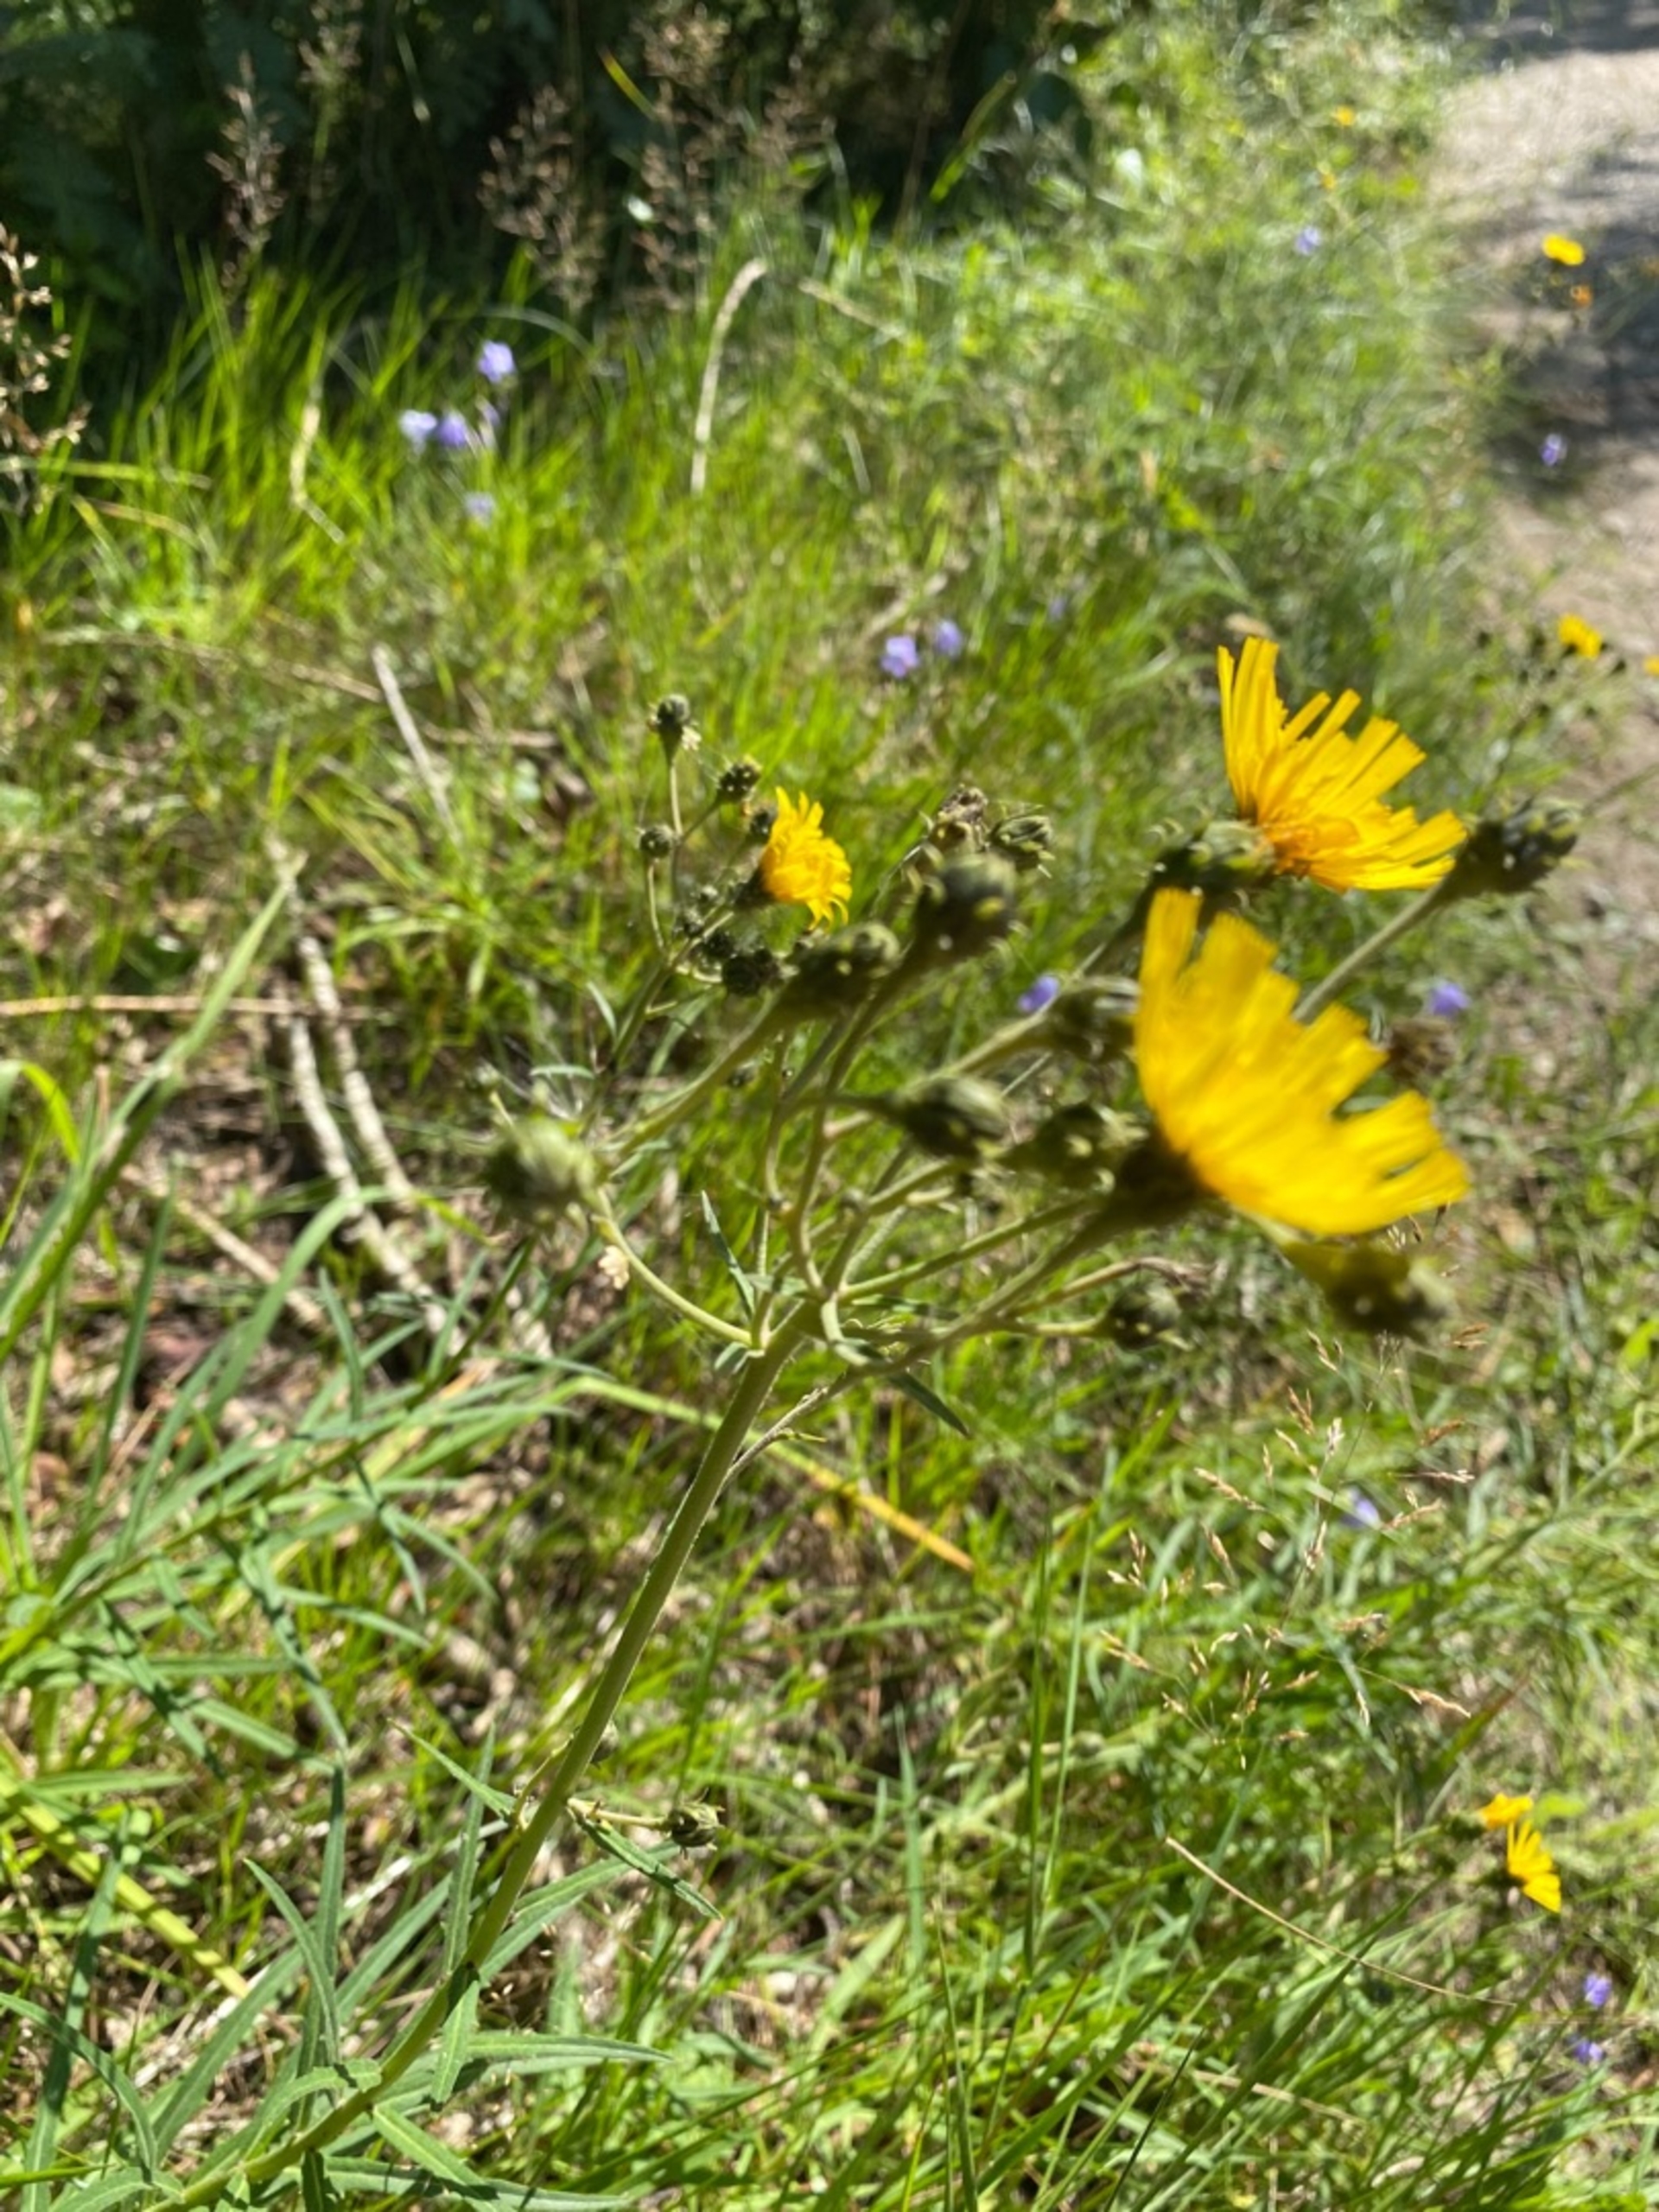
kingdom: Plantae
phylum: Tracheophyta
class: Magnoliopsida
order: Asterales
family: Asteraceae
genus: Hieracium
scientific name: Hieracium umbellatum
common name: Smalbladet høgeurt
